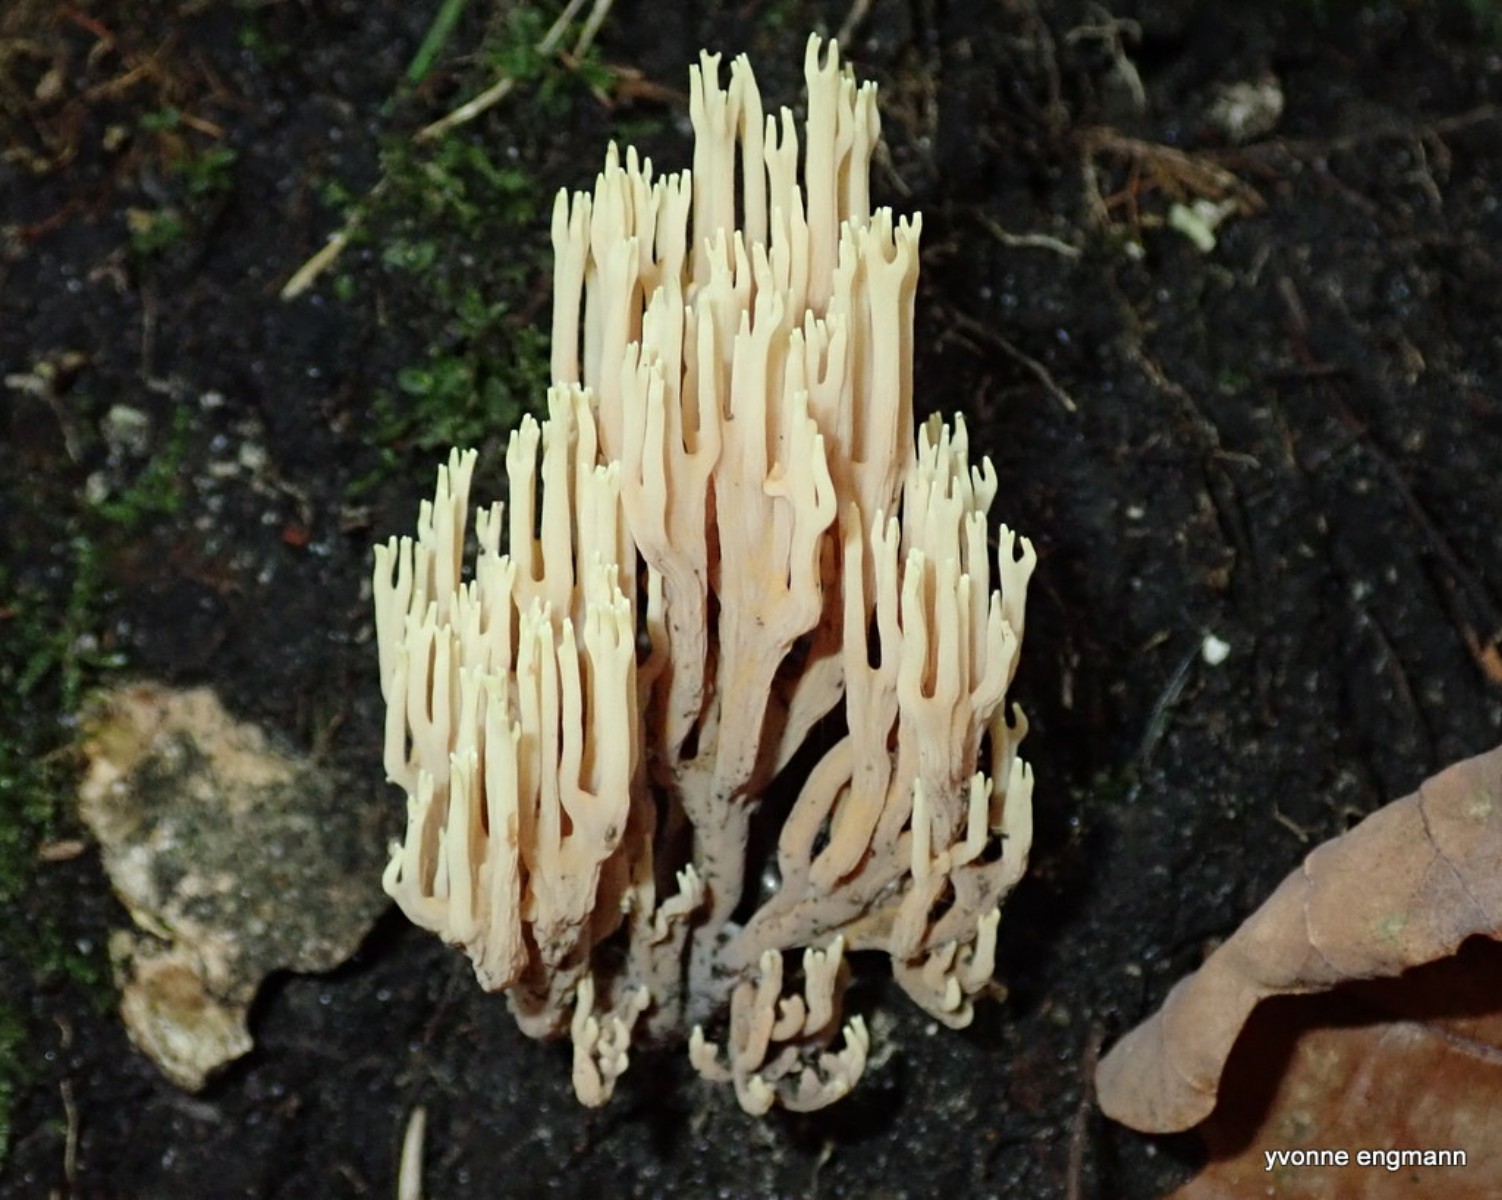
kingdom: Fungi
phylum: Basidiomycota
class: Agaricomycetes
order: Gomphales
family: Gomphaceae
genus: Ramaria
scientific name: Ramaria stricta
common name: rank koralsvamp
